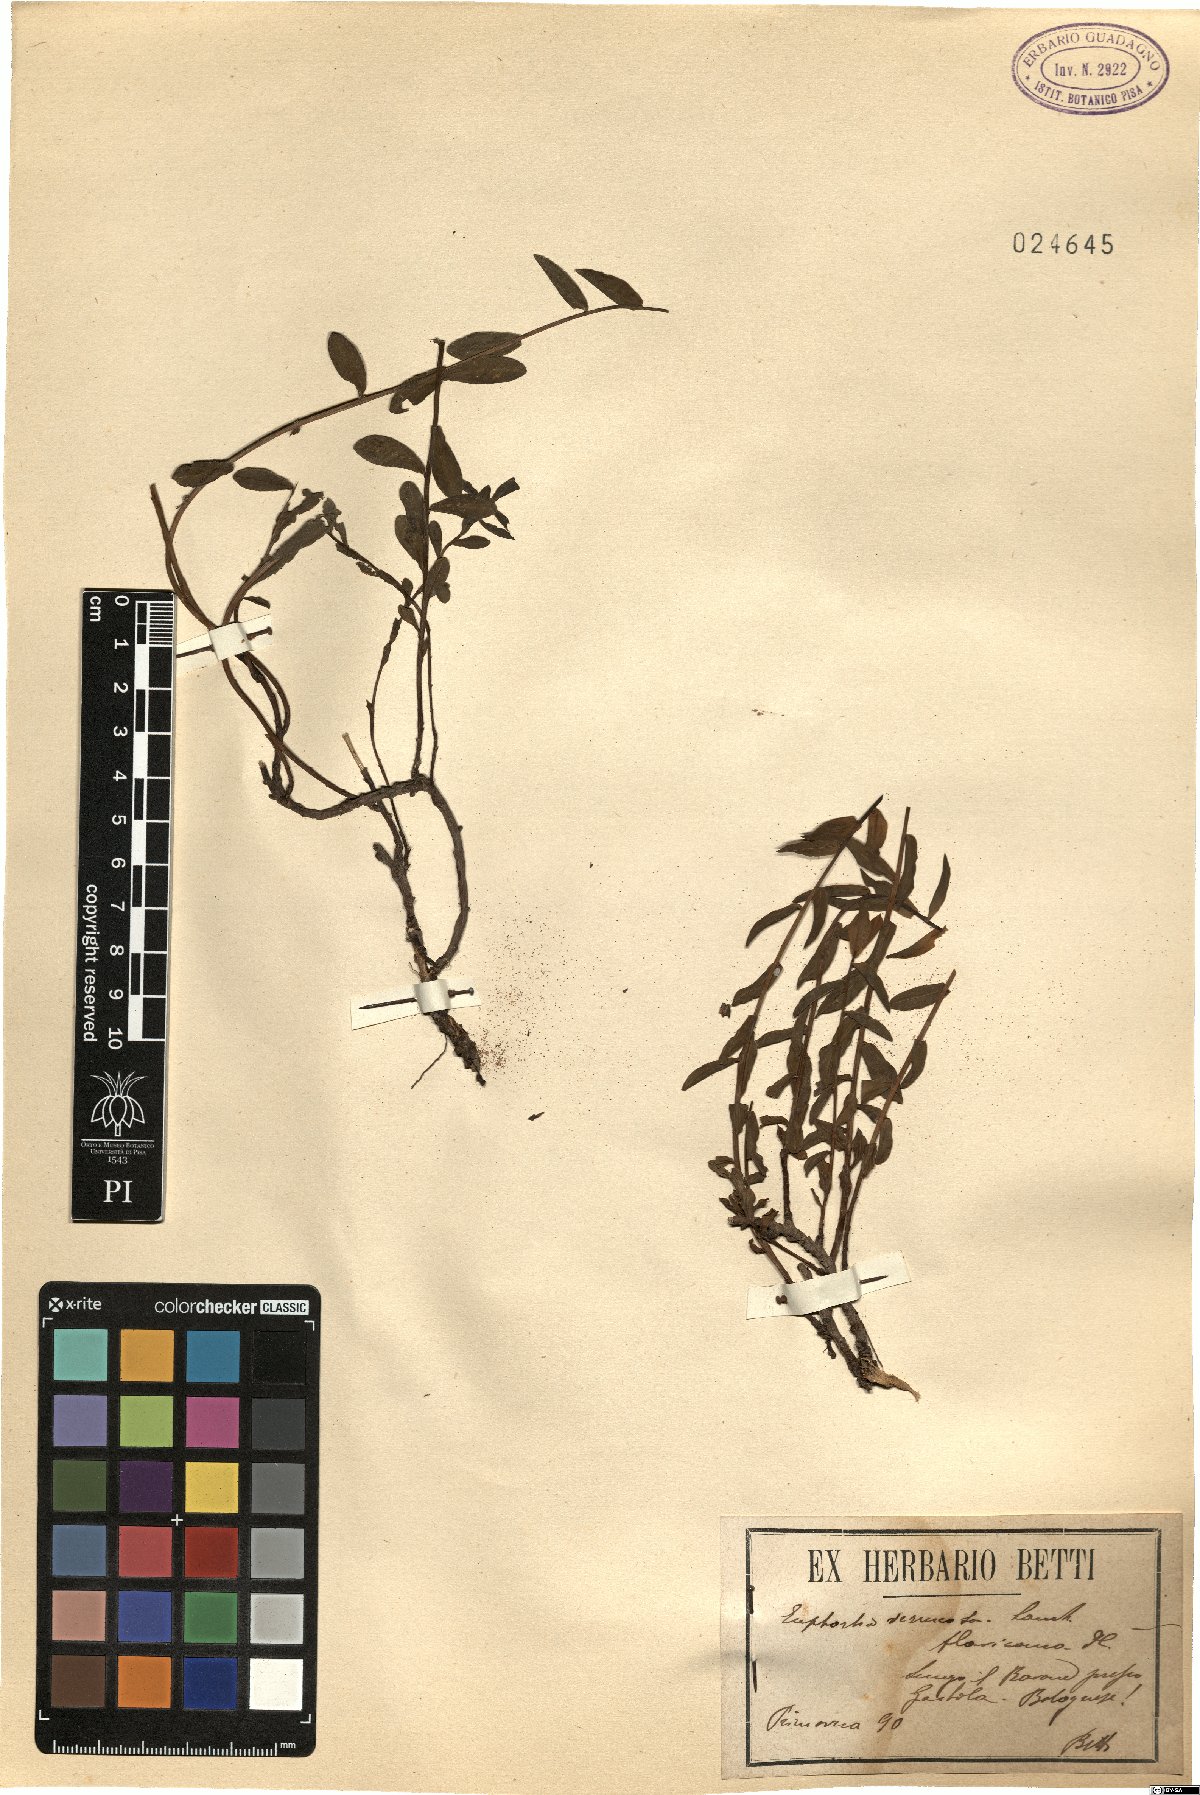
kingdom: Plantae
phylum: Tracheophyta
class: Magnoliopsida
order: Malpighiales
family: Euphorbiaceae
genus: Euphorbia
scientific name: Euphorbia verrucosa
